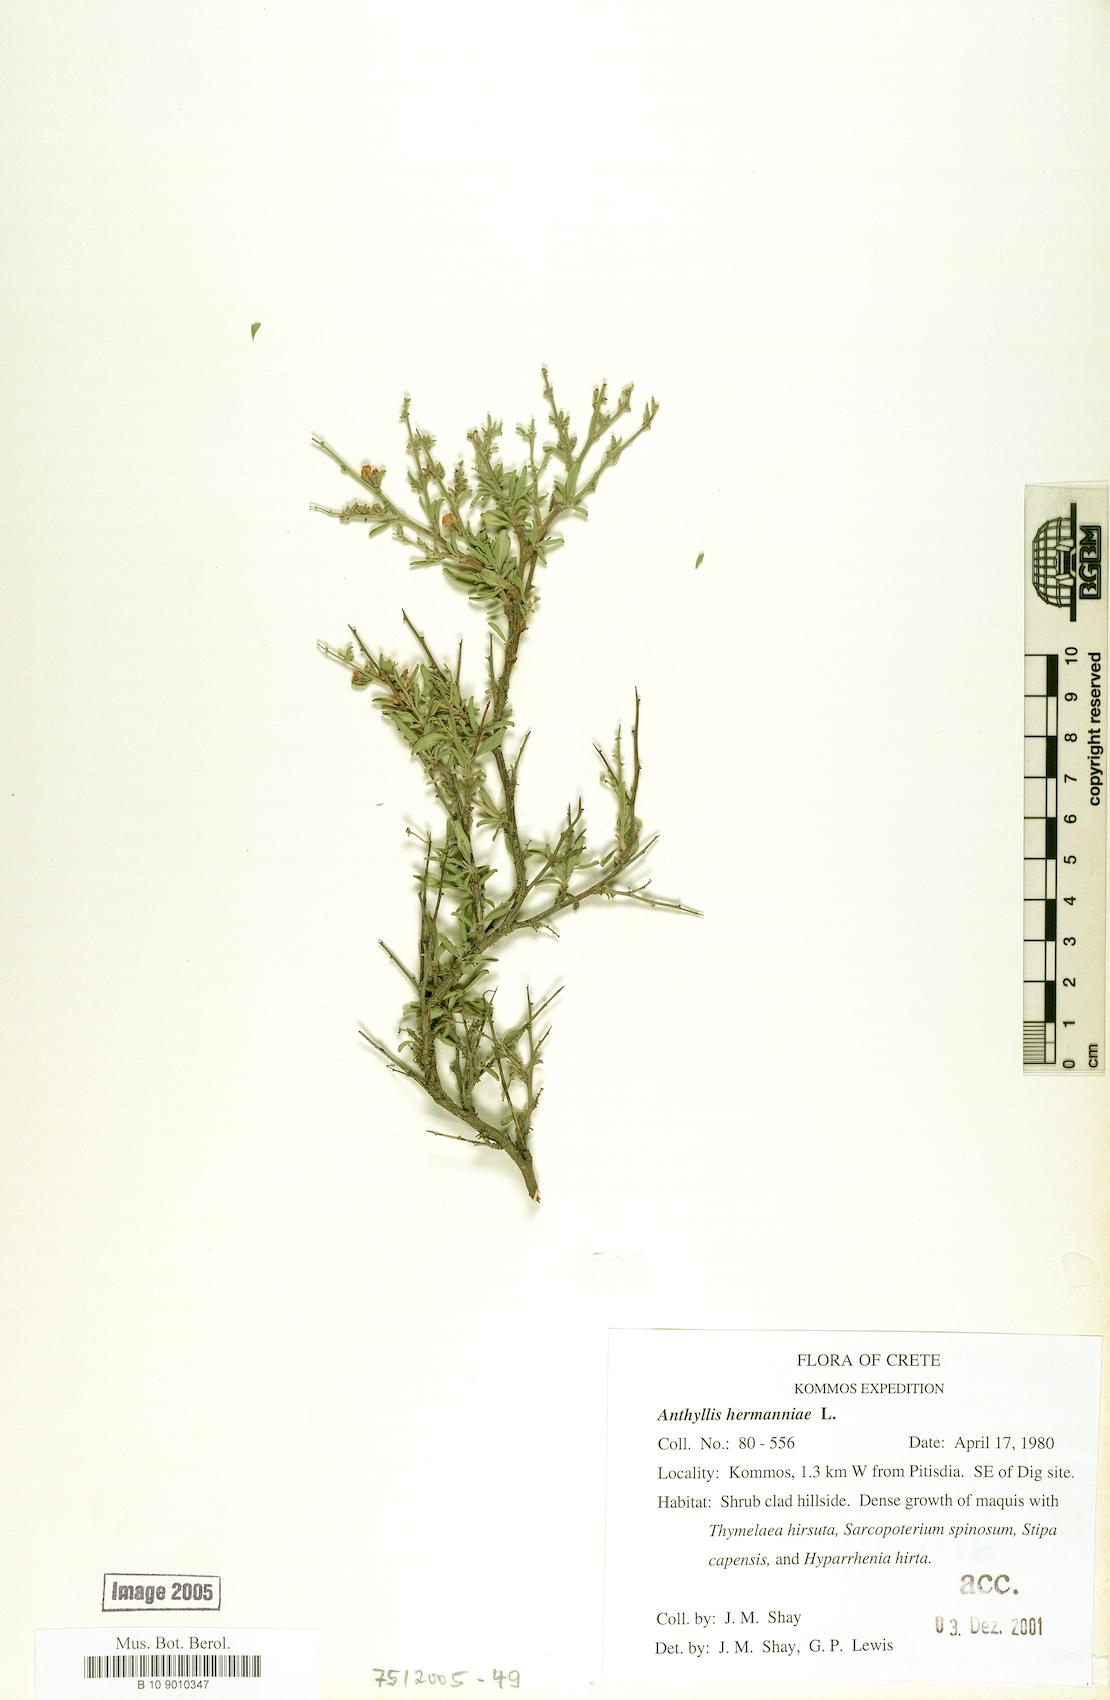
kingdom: Plantae
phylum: Tracheophyta
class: Magnoliopsida
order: Fabales
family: Fabaceae
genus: Anthyllis
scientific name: Anthyllis hermanniae
